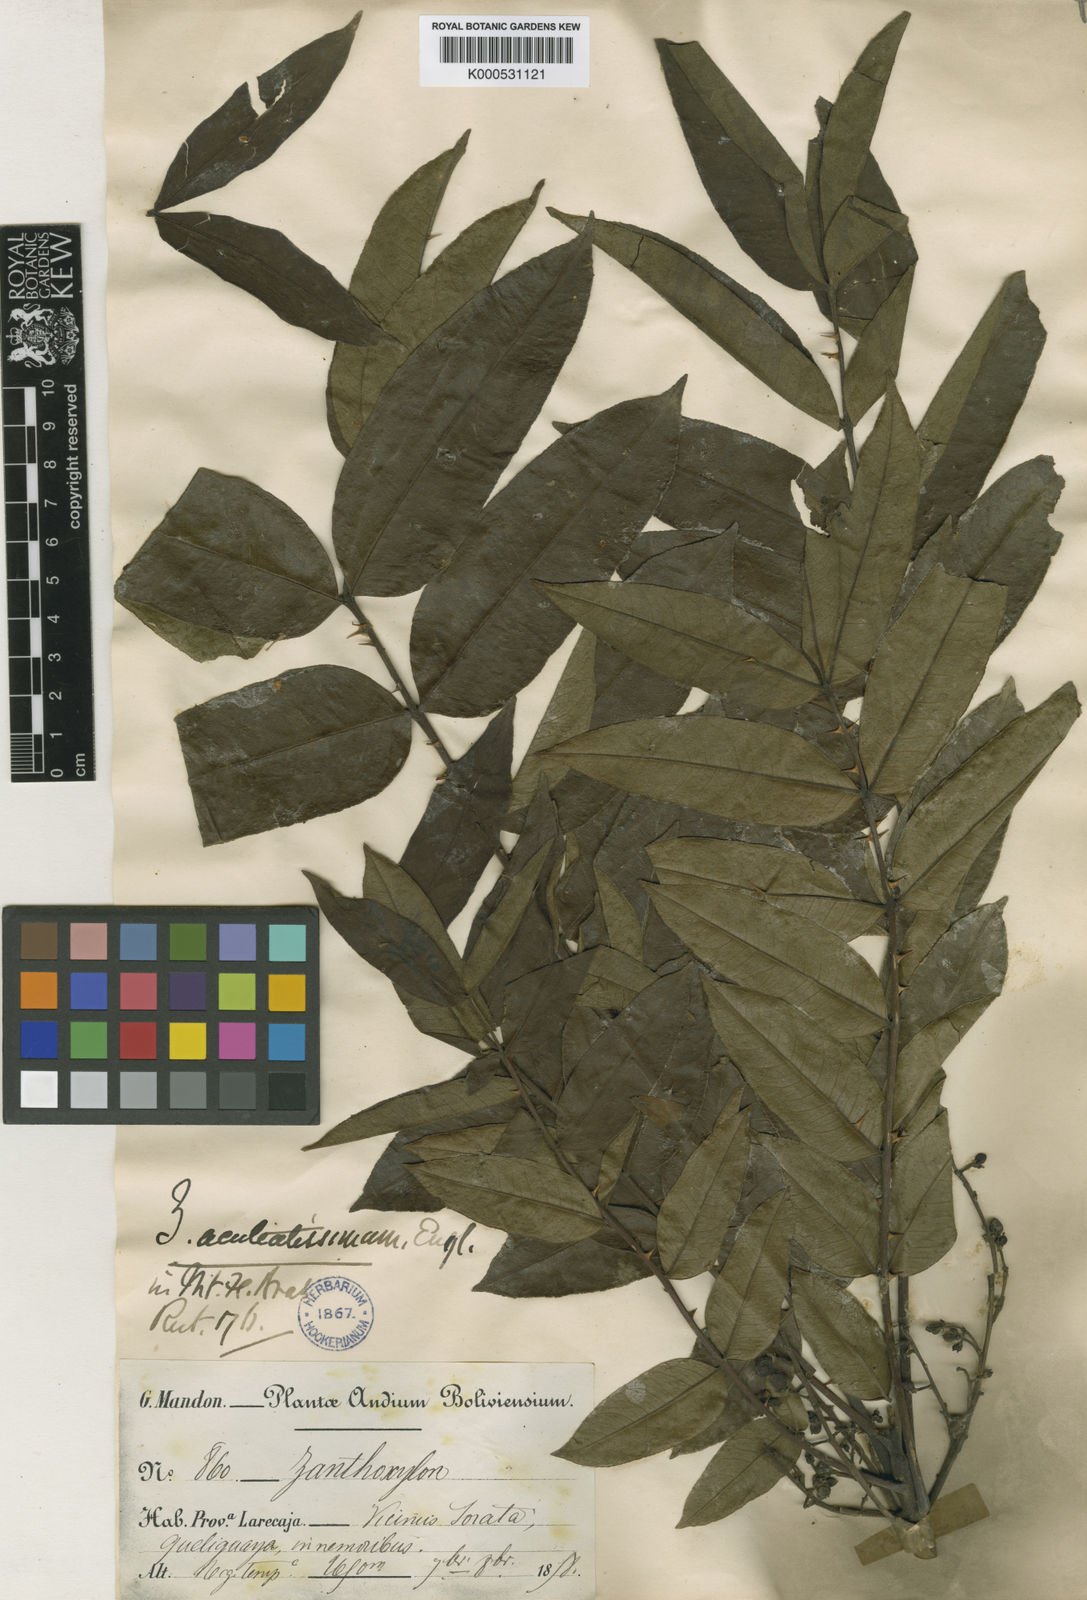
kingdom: Plantae
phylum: Tracheophyta
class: Magnoliopsida
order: Sapindales
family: Rutaceae
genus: Zanthoxylum
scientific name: Zanthoxylum aculeatissimum
